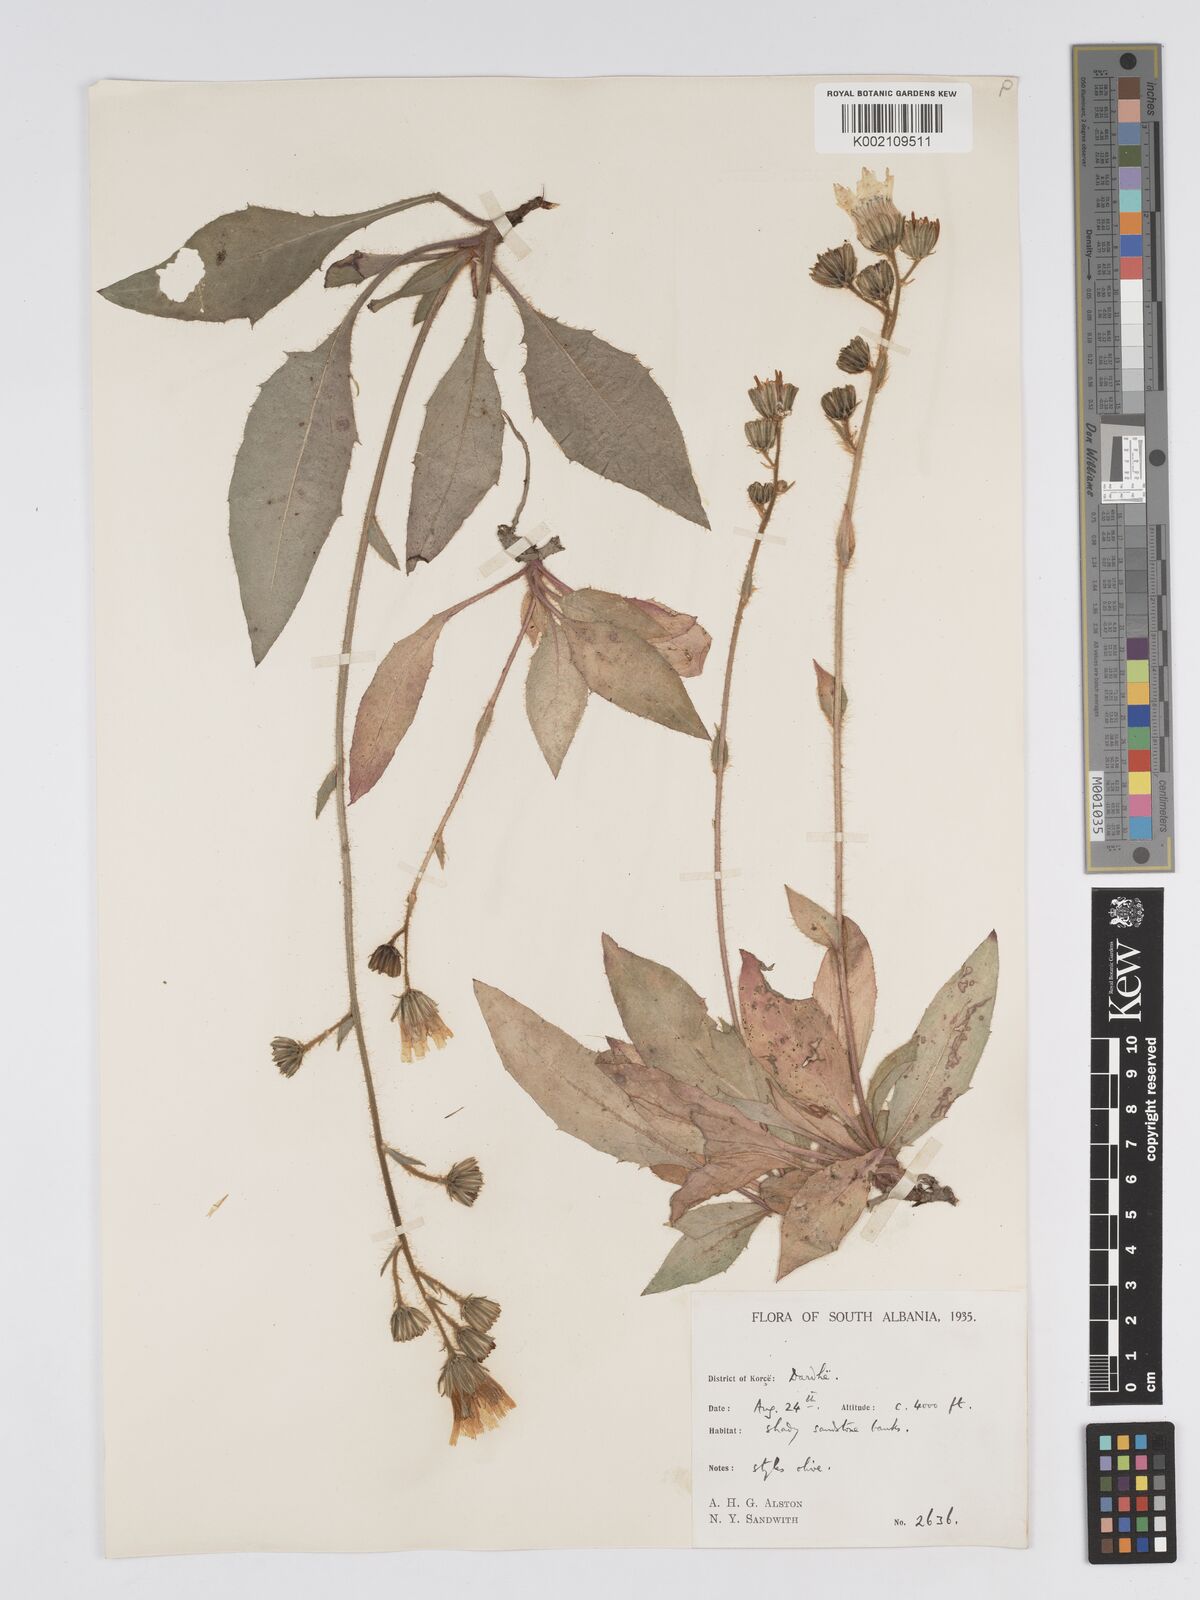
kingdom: Plantae
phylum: Tracheophyta
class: Magnoliopsida
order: Asterales
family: Asteraceae
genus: Hieracium
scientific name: Hieracium
